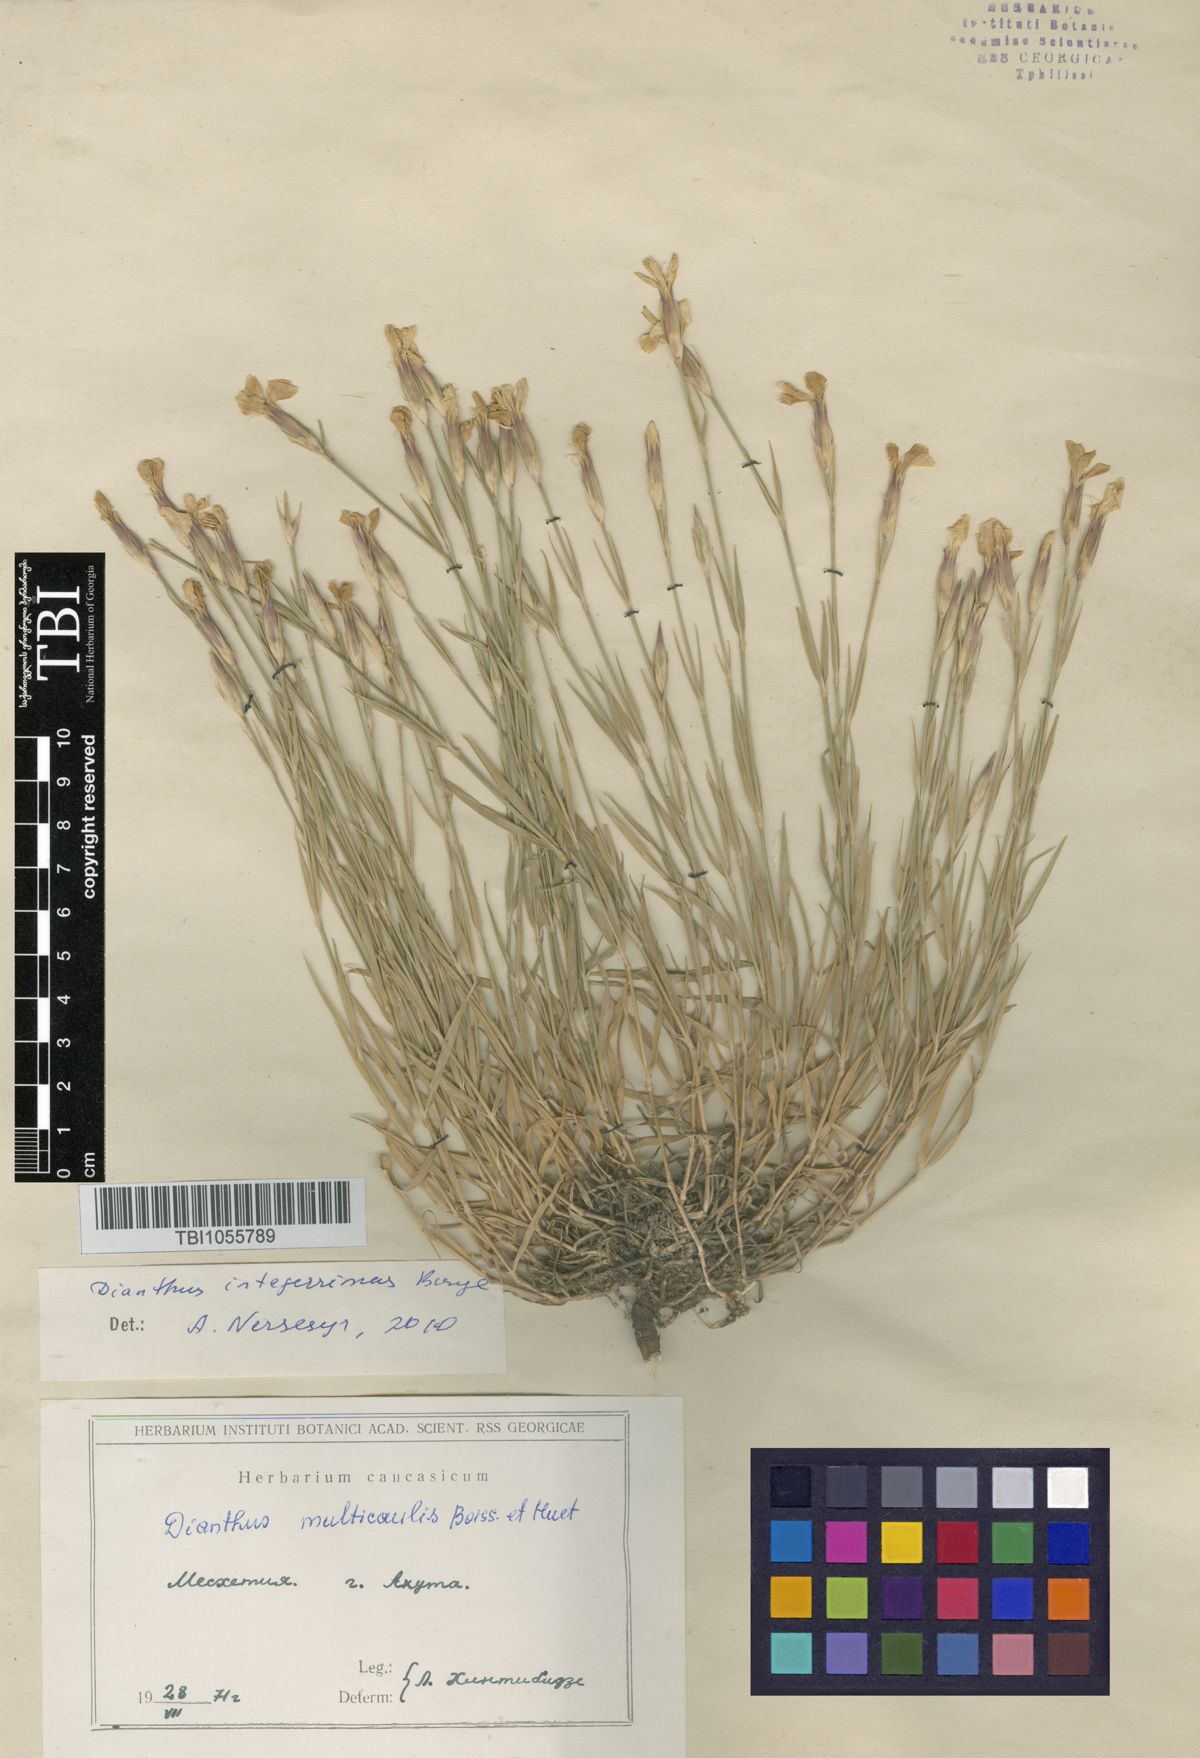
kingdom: Plantae
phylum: Tracheophyta
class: Magnoliopsida
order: Caryophyllales
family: Caryophyllaceae
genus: Dianthus
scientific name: Dianthus cretaceus
